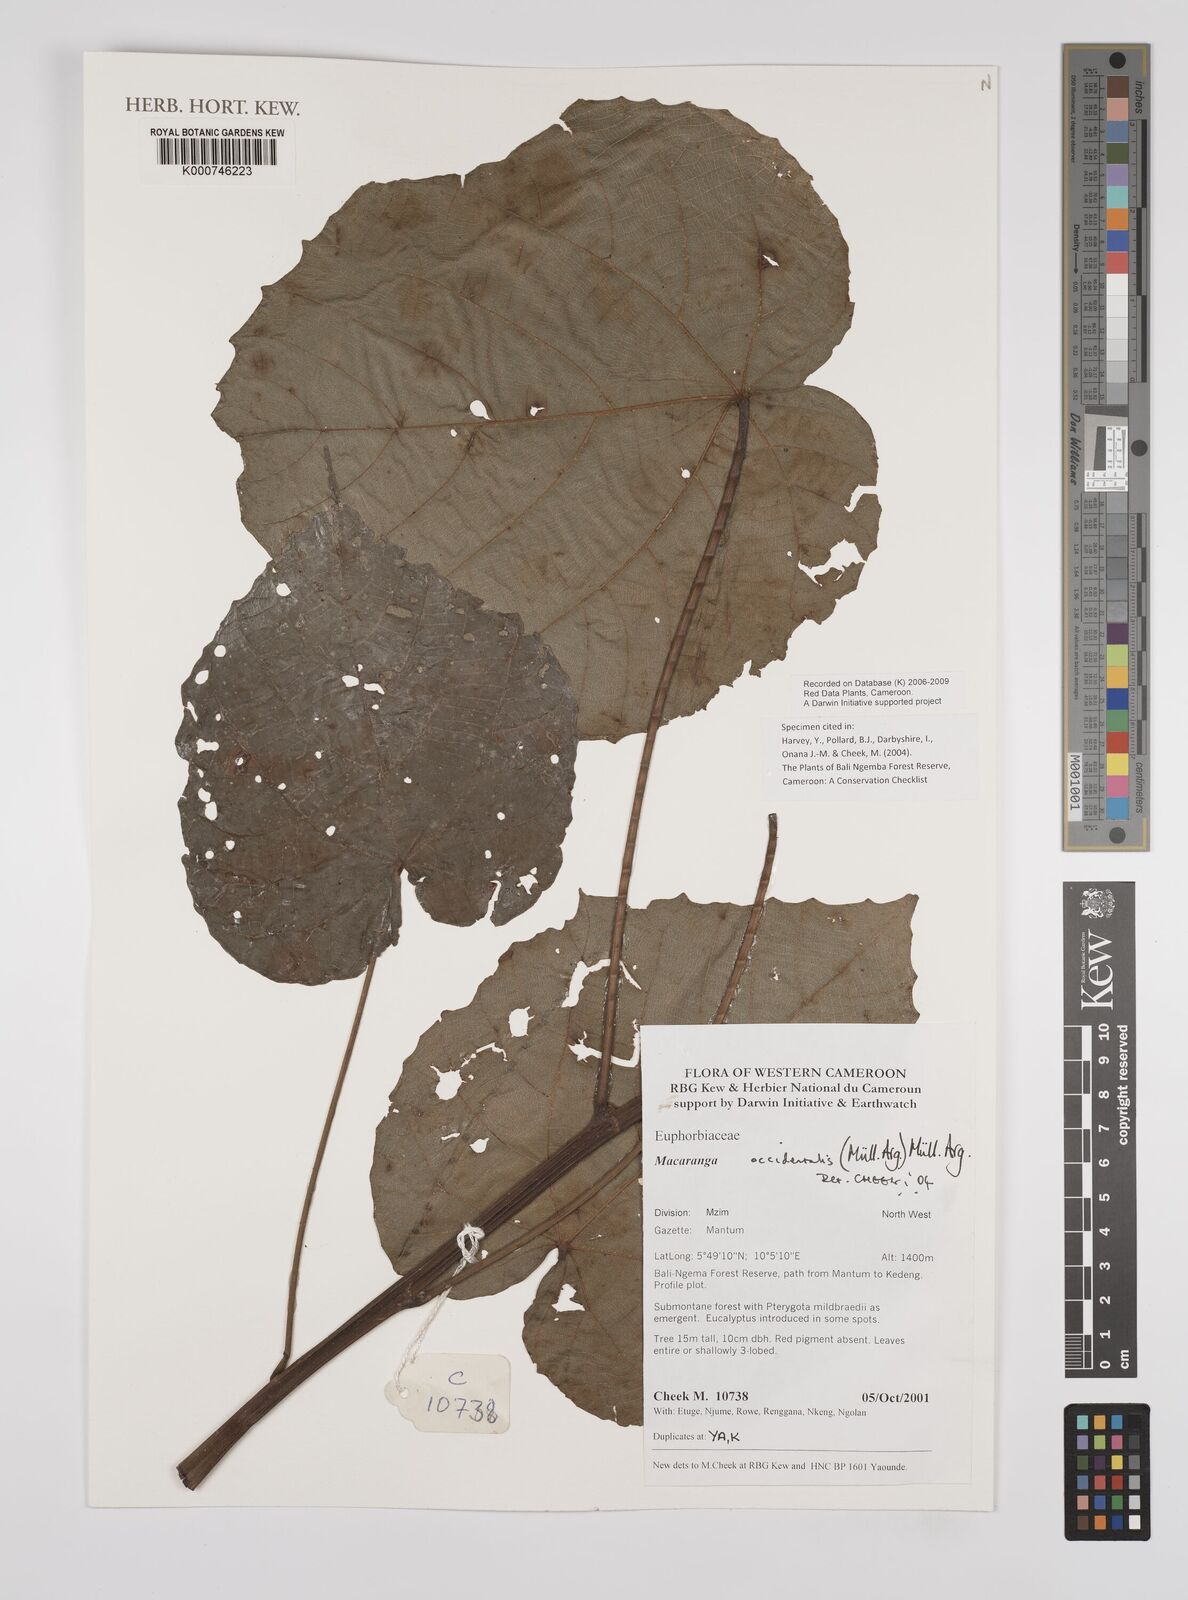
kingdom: Plantae
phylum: Tracheophyta
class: Magnoliopsida
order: Malpighiales
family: Euphorbiaceae
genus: Macaranga
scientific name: Macaranga
